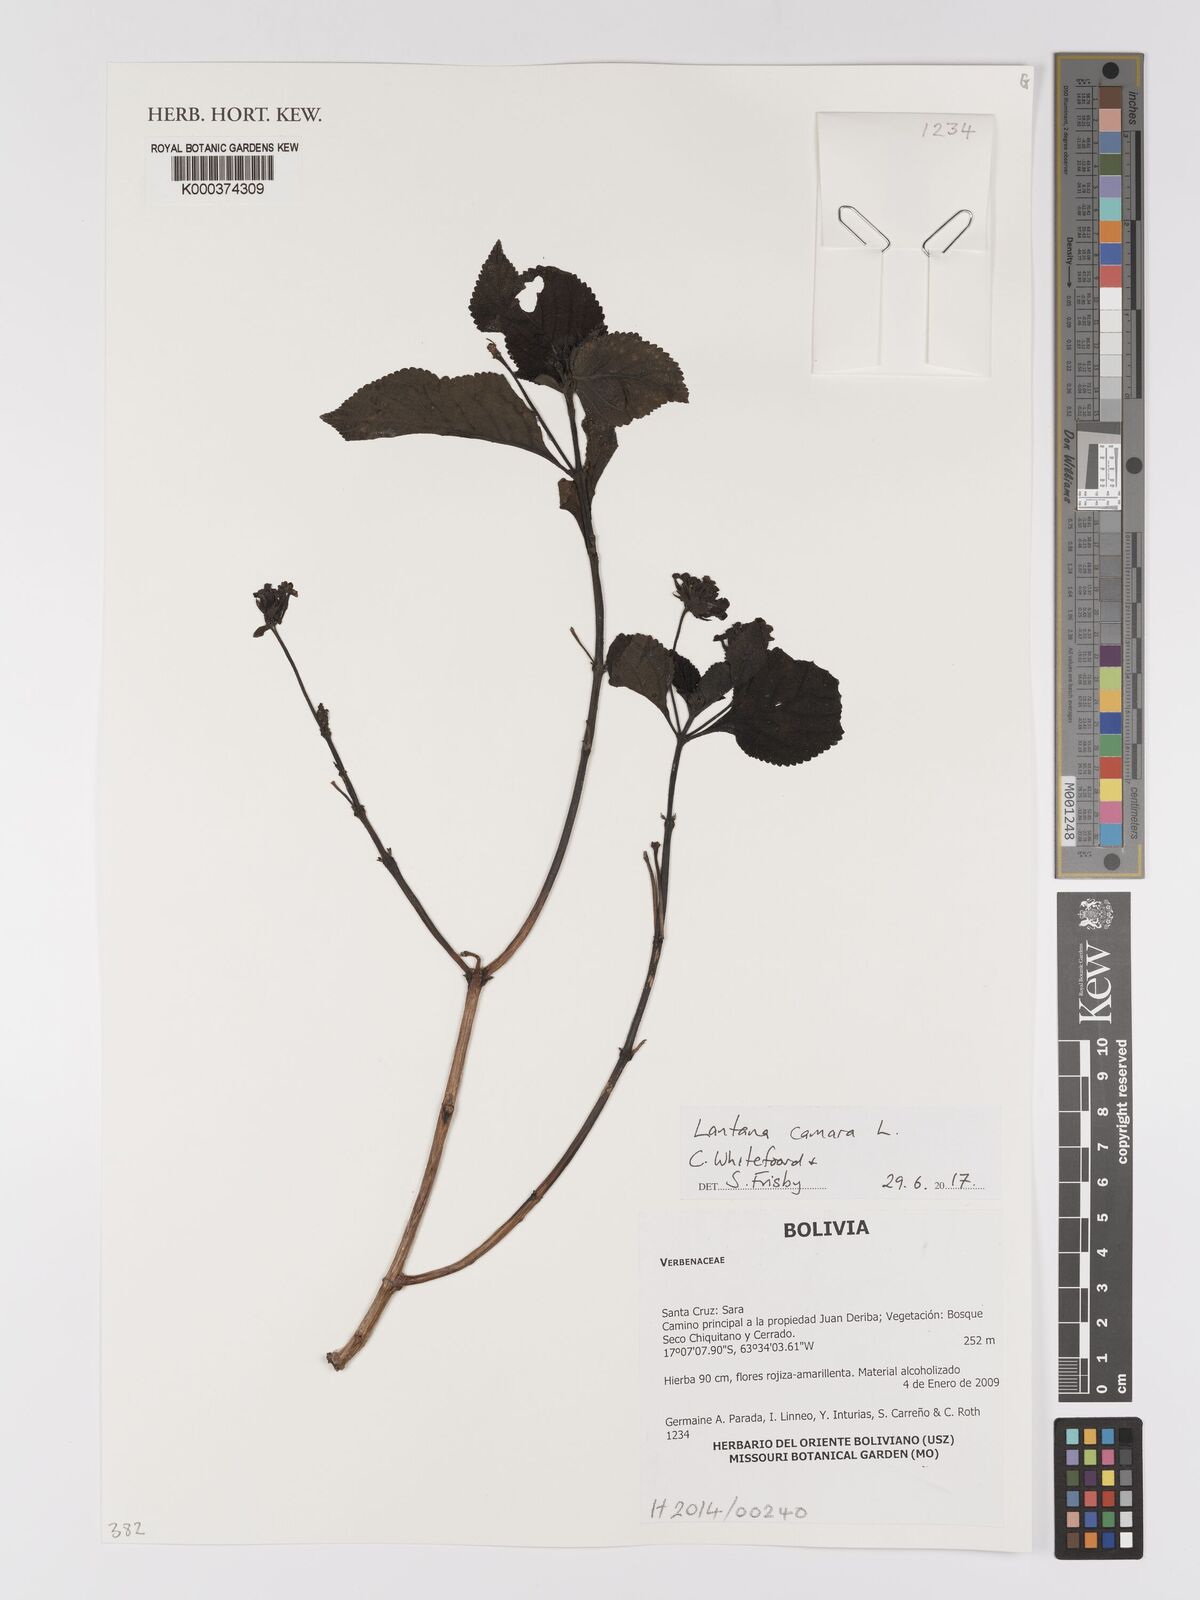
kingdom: Plantae
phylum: Tracheophyta
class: Magnoliopsida
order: Lamiales
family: Verbenaceae
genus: Lantana
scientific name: Lantana camara
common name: Lantana
